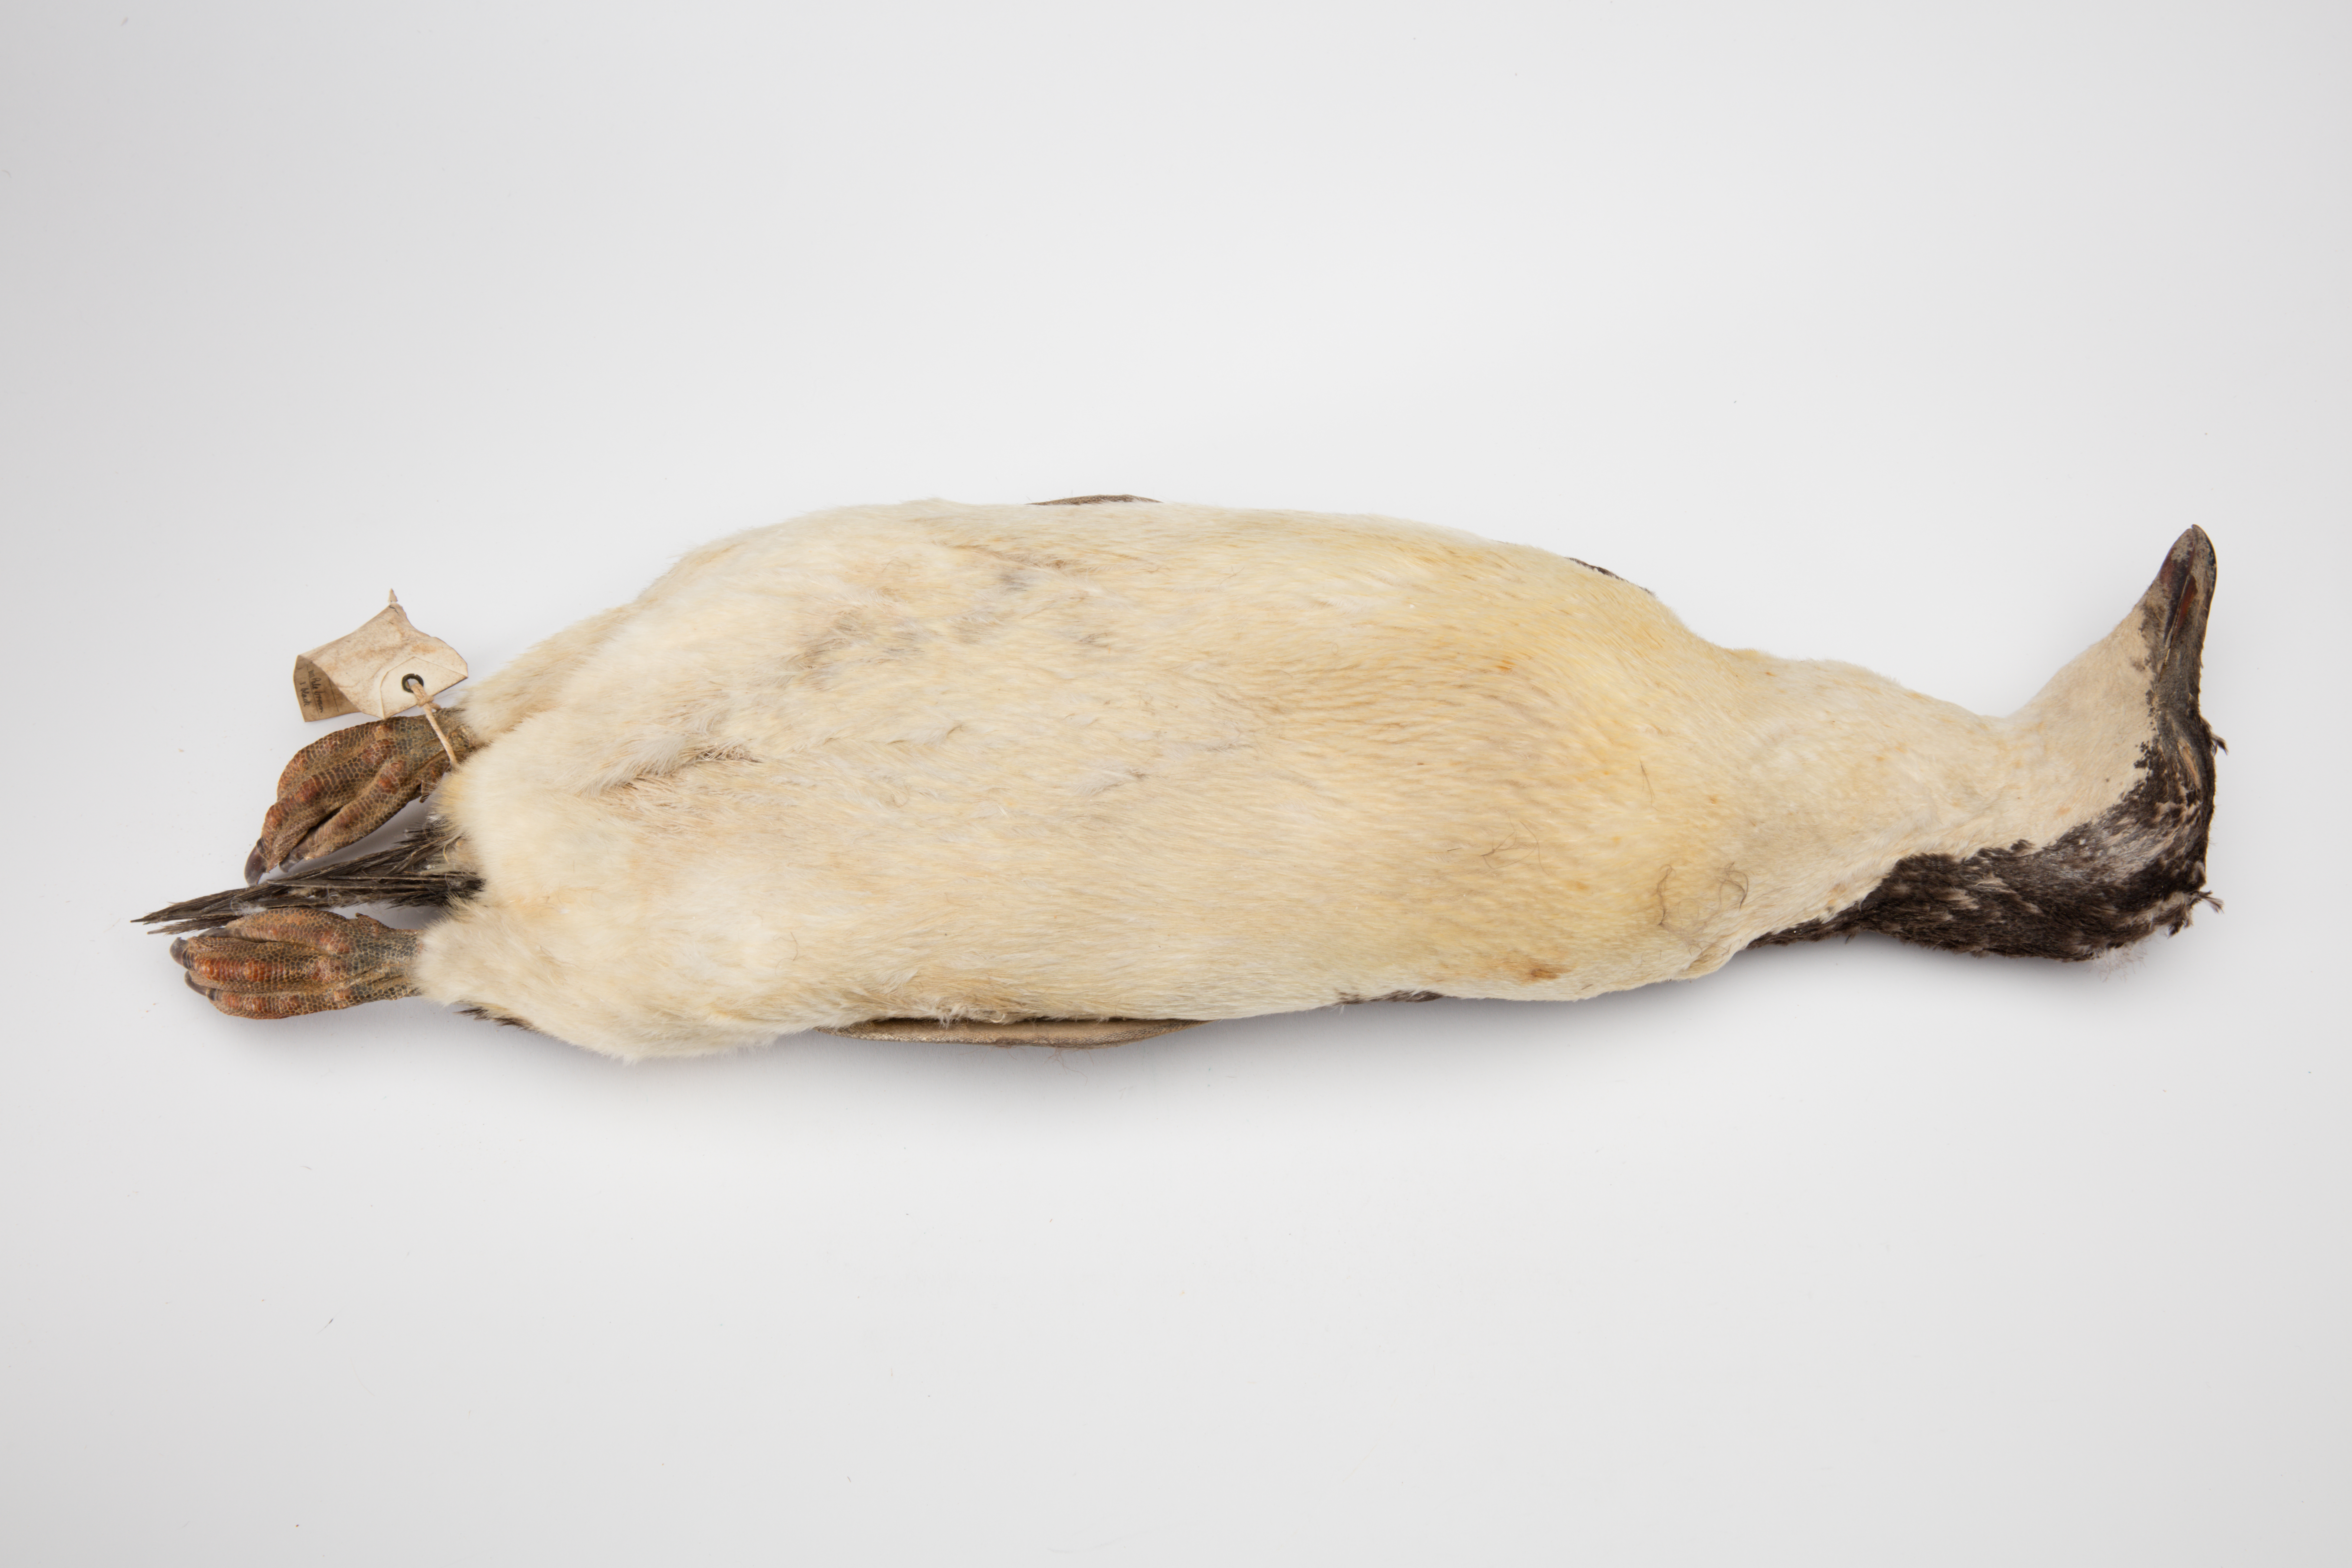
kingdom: Animalia
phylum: Chordata
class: Aves
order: Sphenisciformes
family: Spheniscidae
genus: Pygoscelis
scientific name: Pygoscelis adeliae
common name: Adelie penguin
